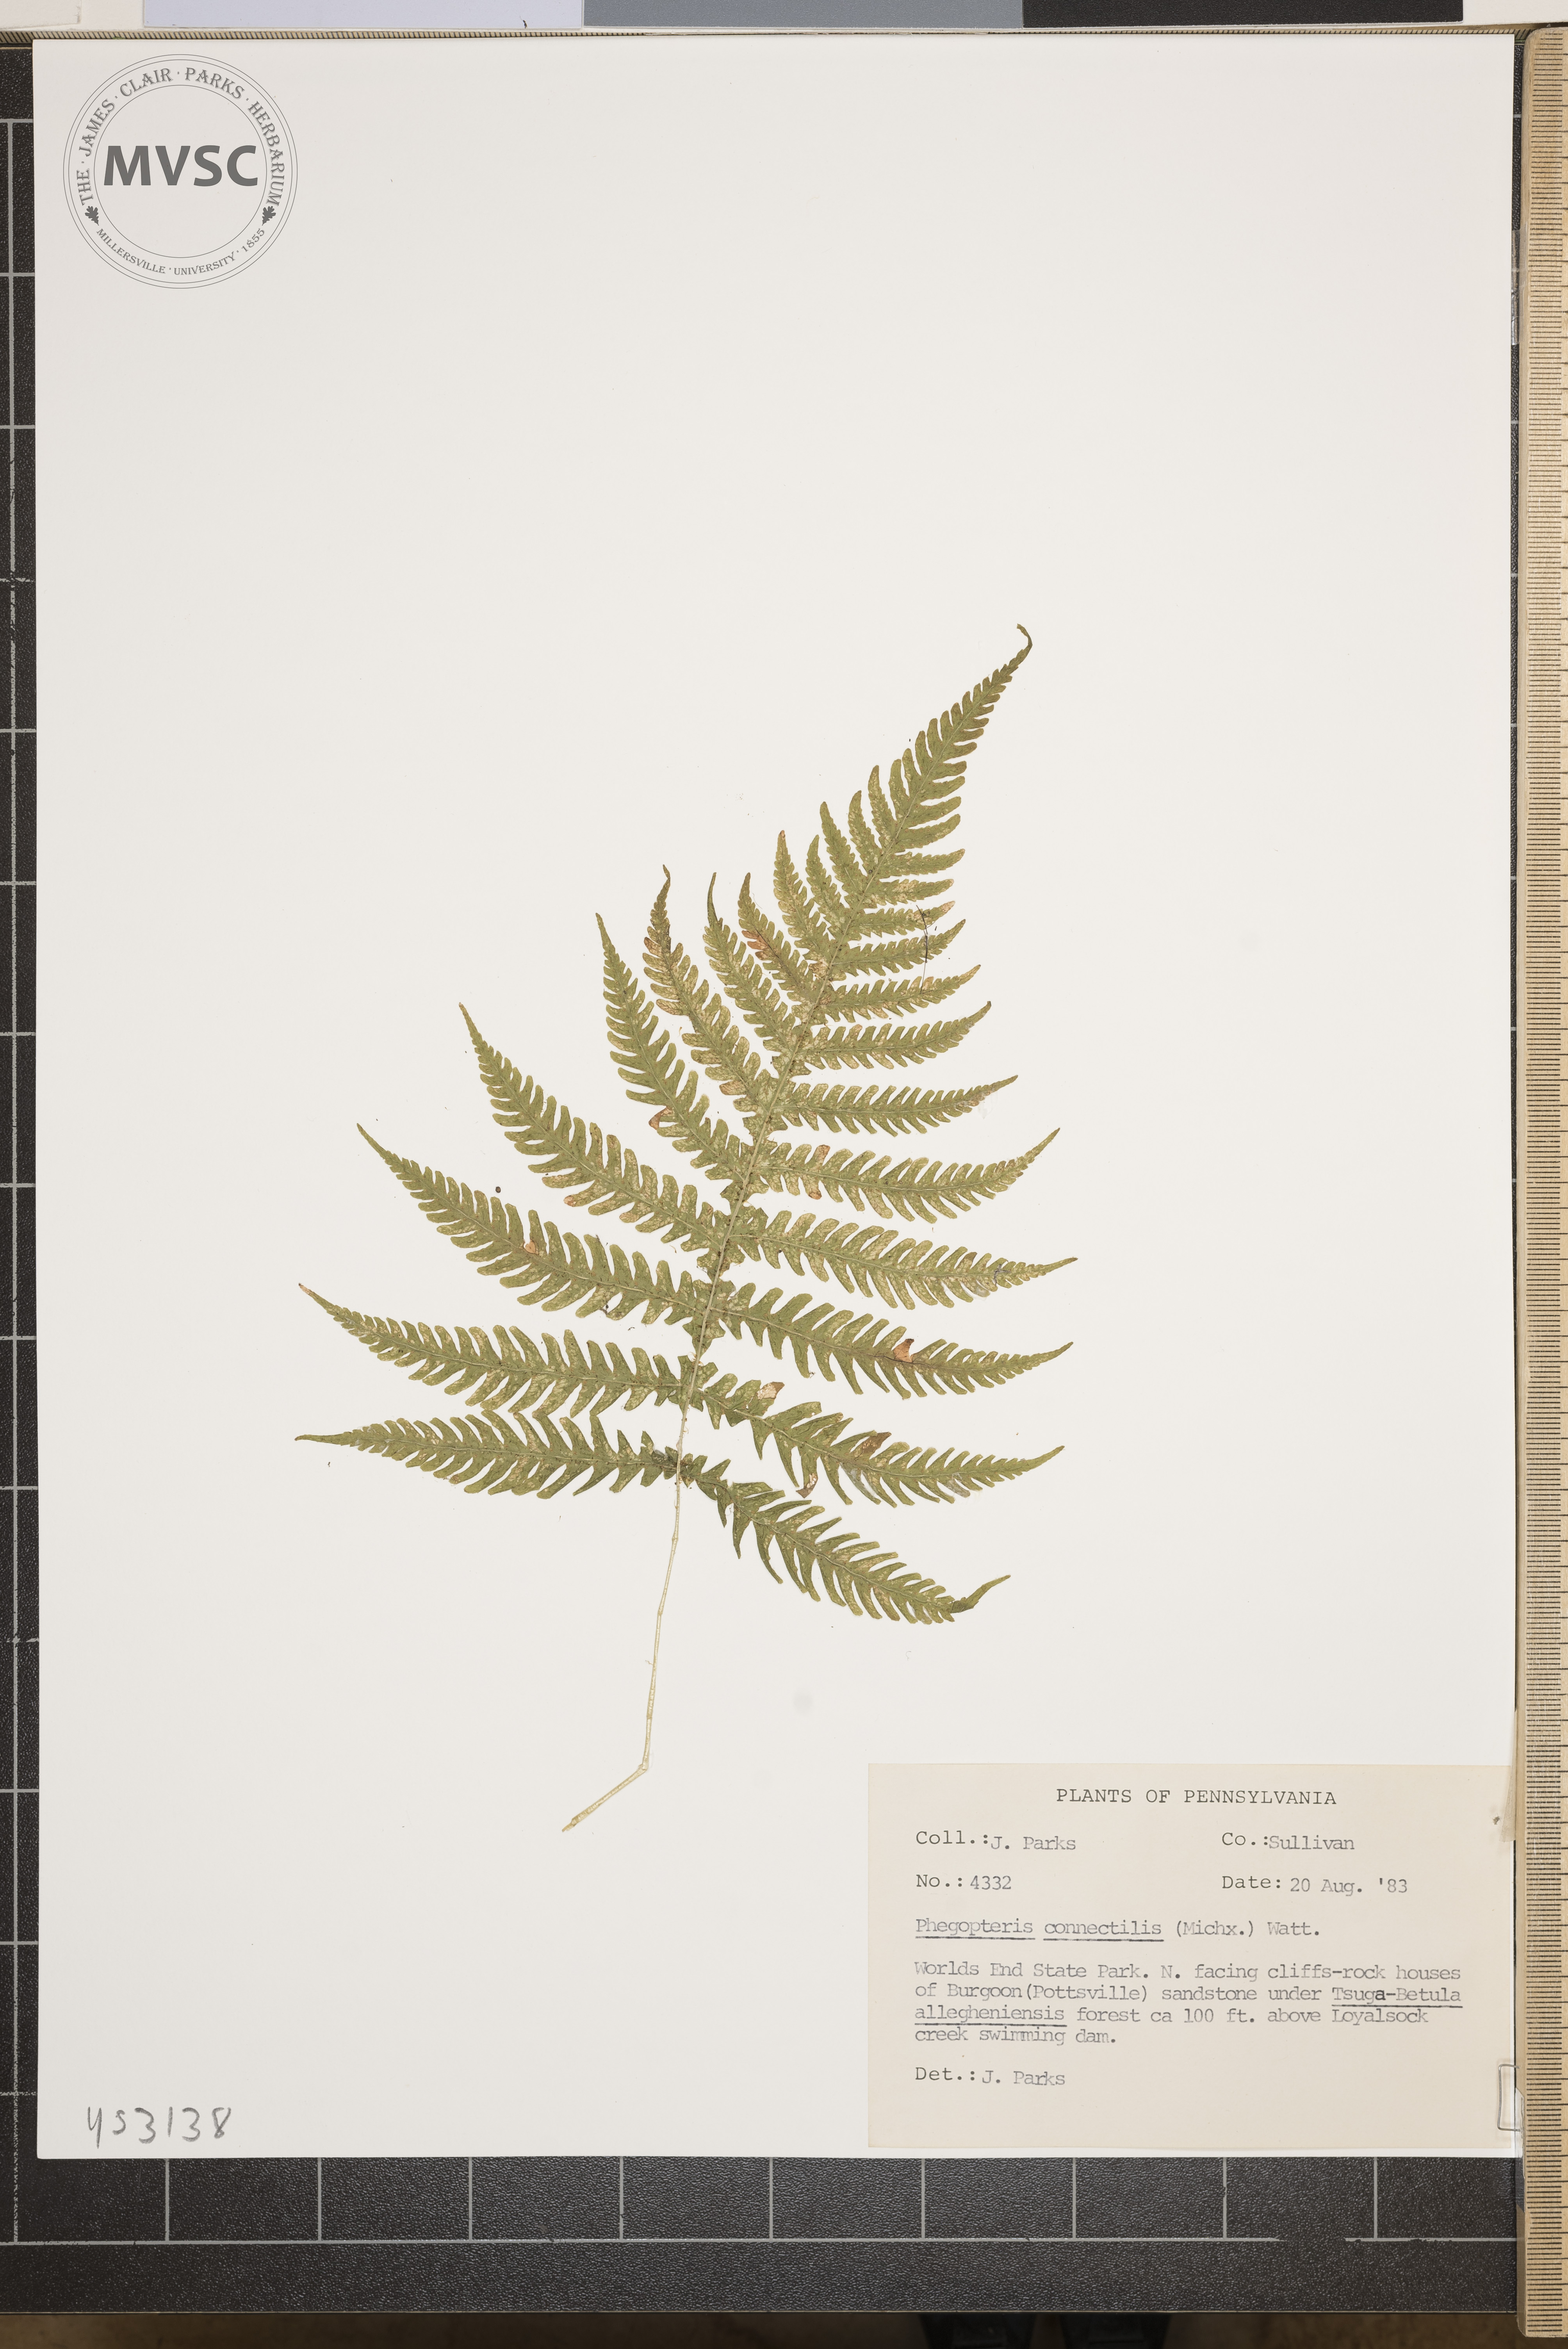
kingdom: Plantae
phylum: Tracheophyta
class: Polypodiopsida
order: Polypodiales
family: Thelypteridaceae
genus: Phegopteris
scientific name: Phegopteris connectilis
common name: Beech fern
